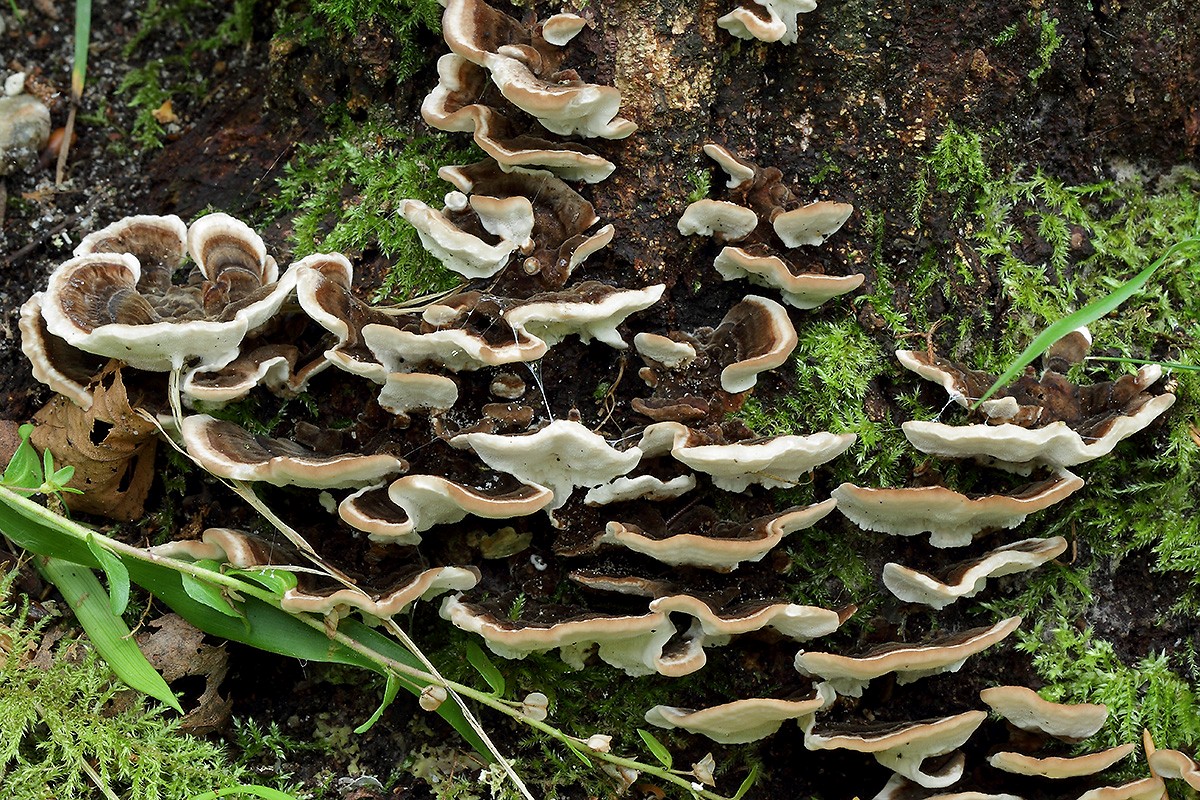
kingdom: Fungi
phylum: Basidiomycota
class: Agaricomycetes
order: Polyporales
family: Polyporaceae
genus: Trametes
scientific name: Trametes versicolor
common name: broget læderporesvamp
